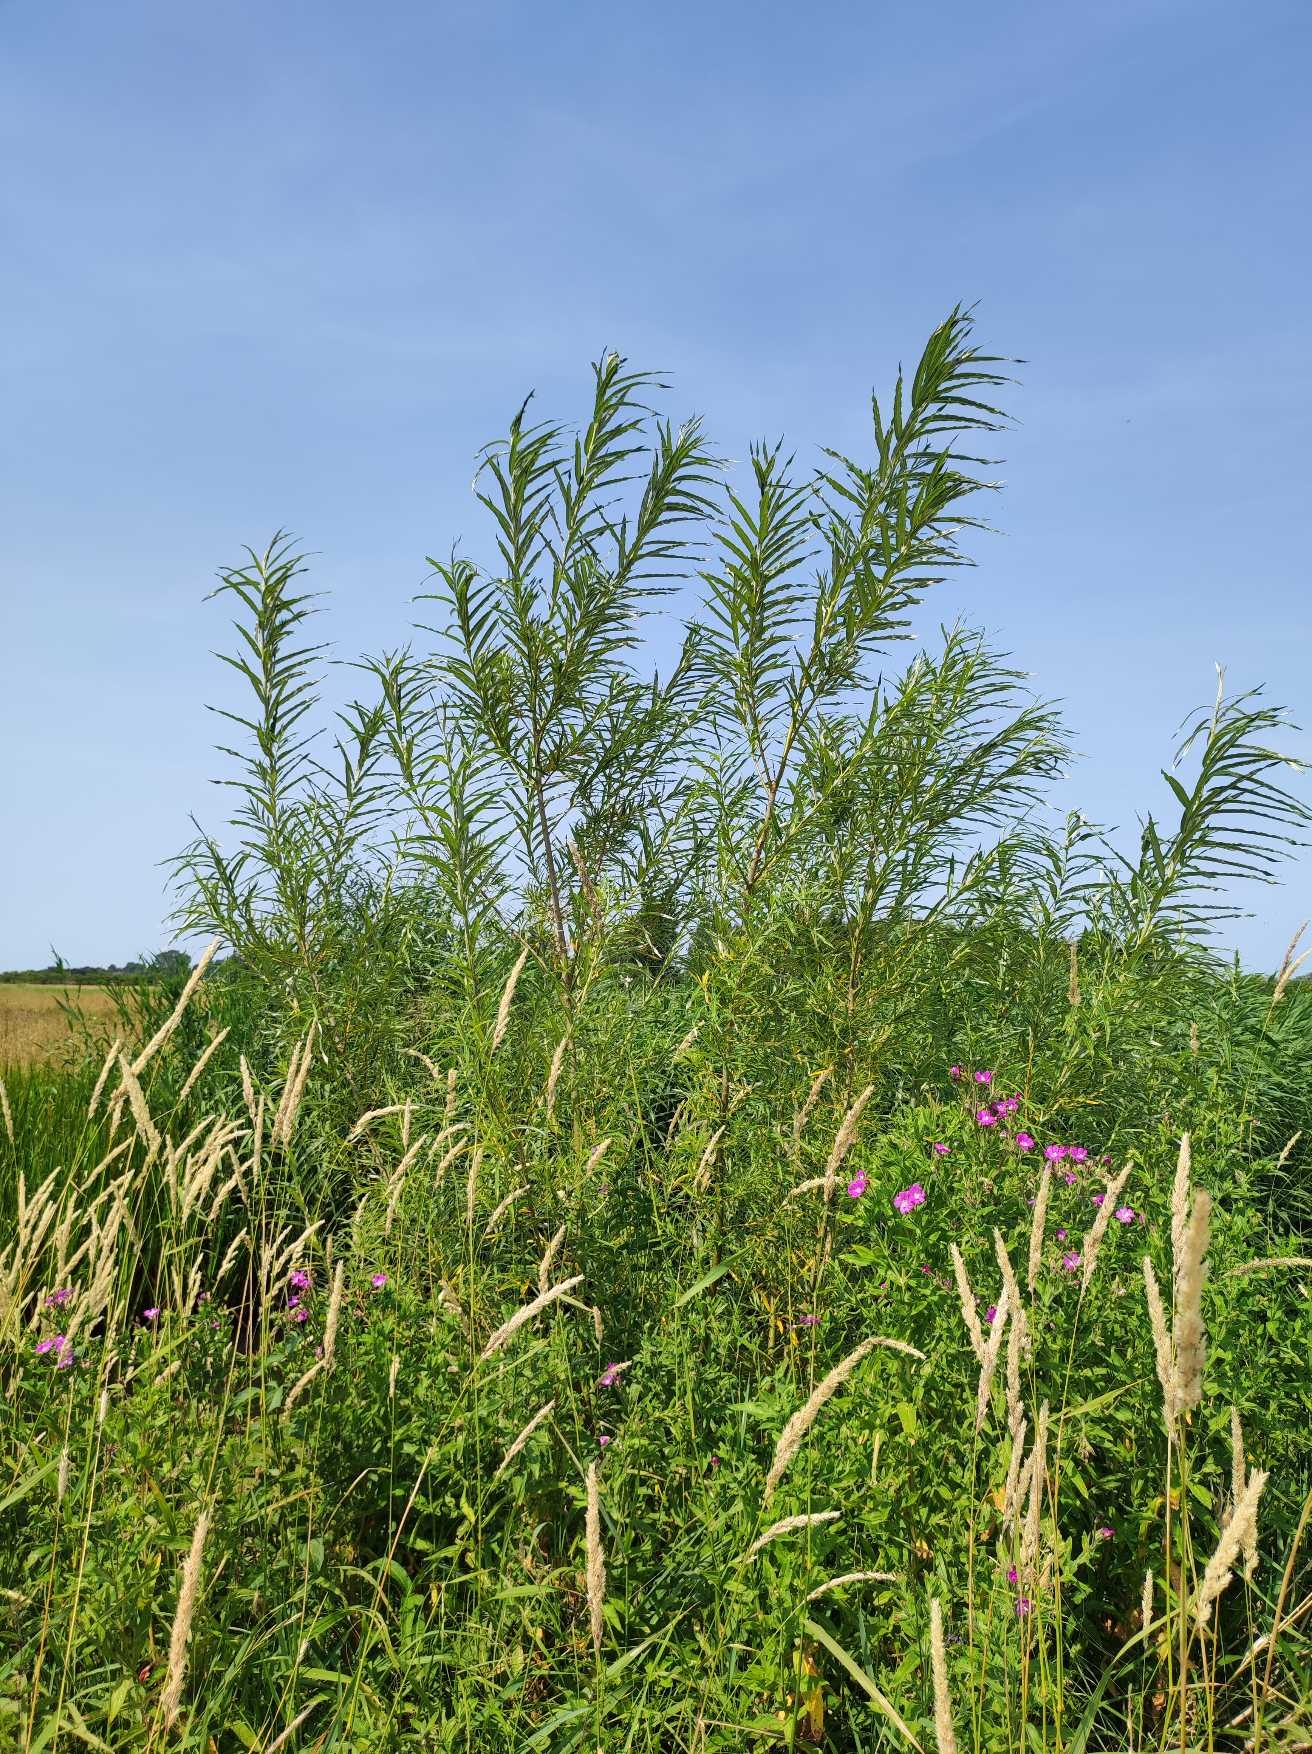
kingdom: Plantae
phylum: Tracheophyta
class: Magnoliopsida
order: Malpighiales
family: Salicaceae
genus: Salix
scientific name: Salix viminalis
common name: Bånd-pil
